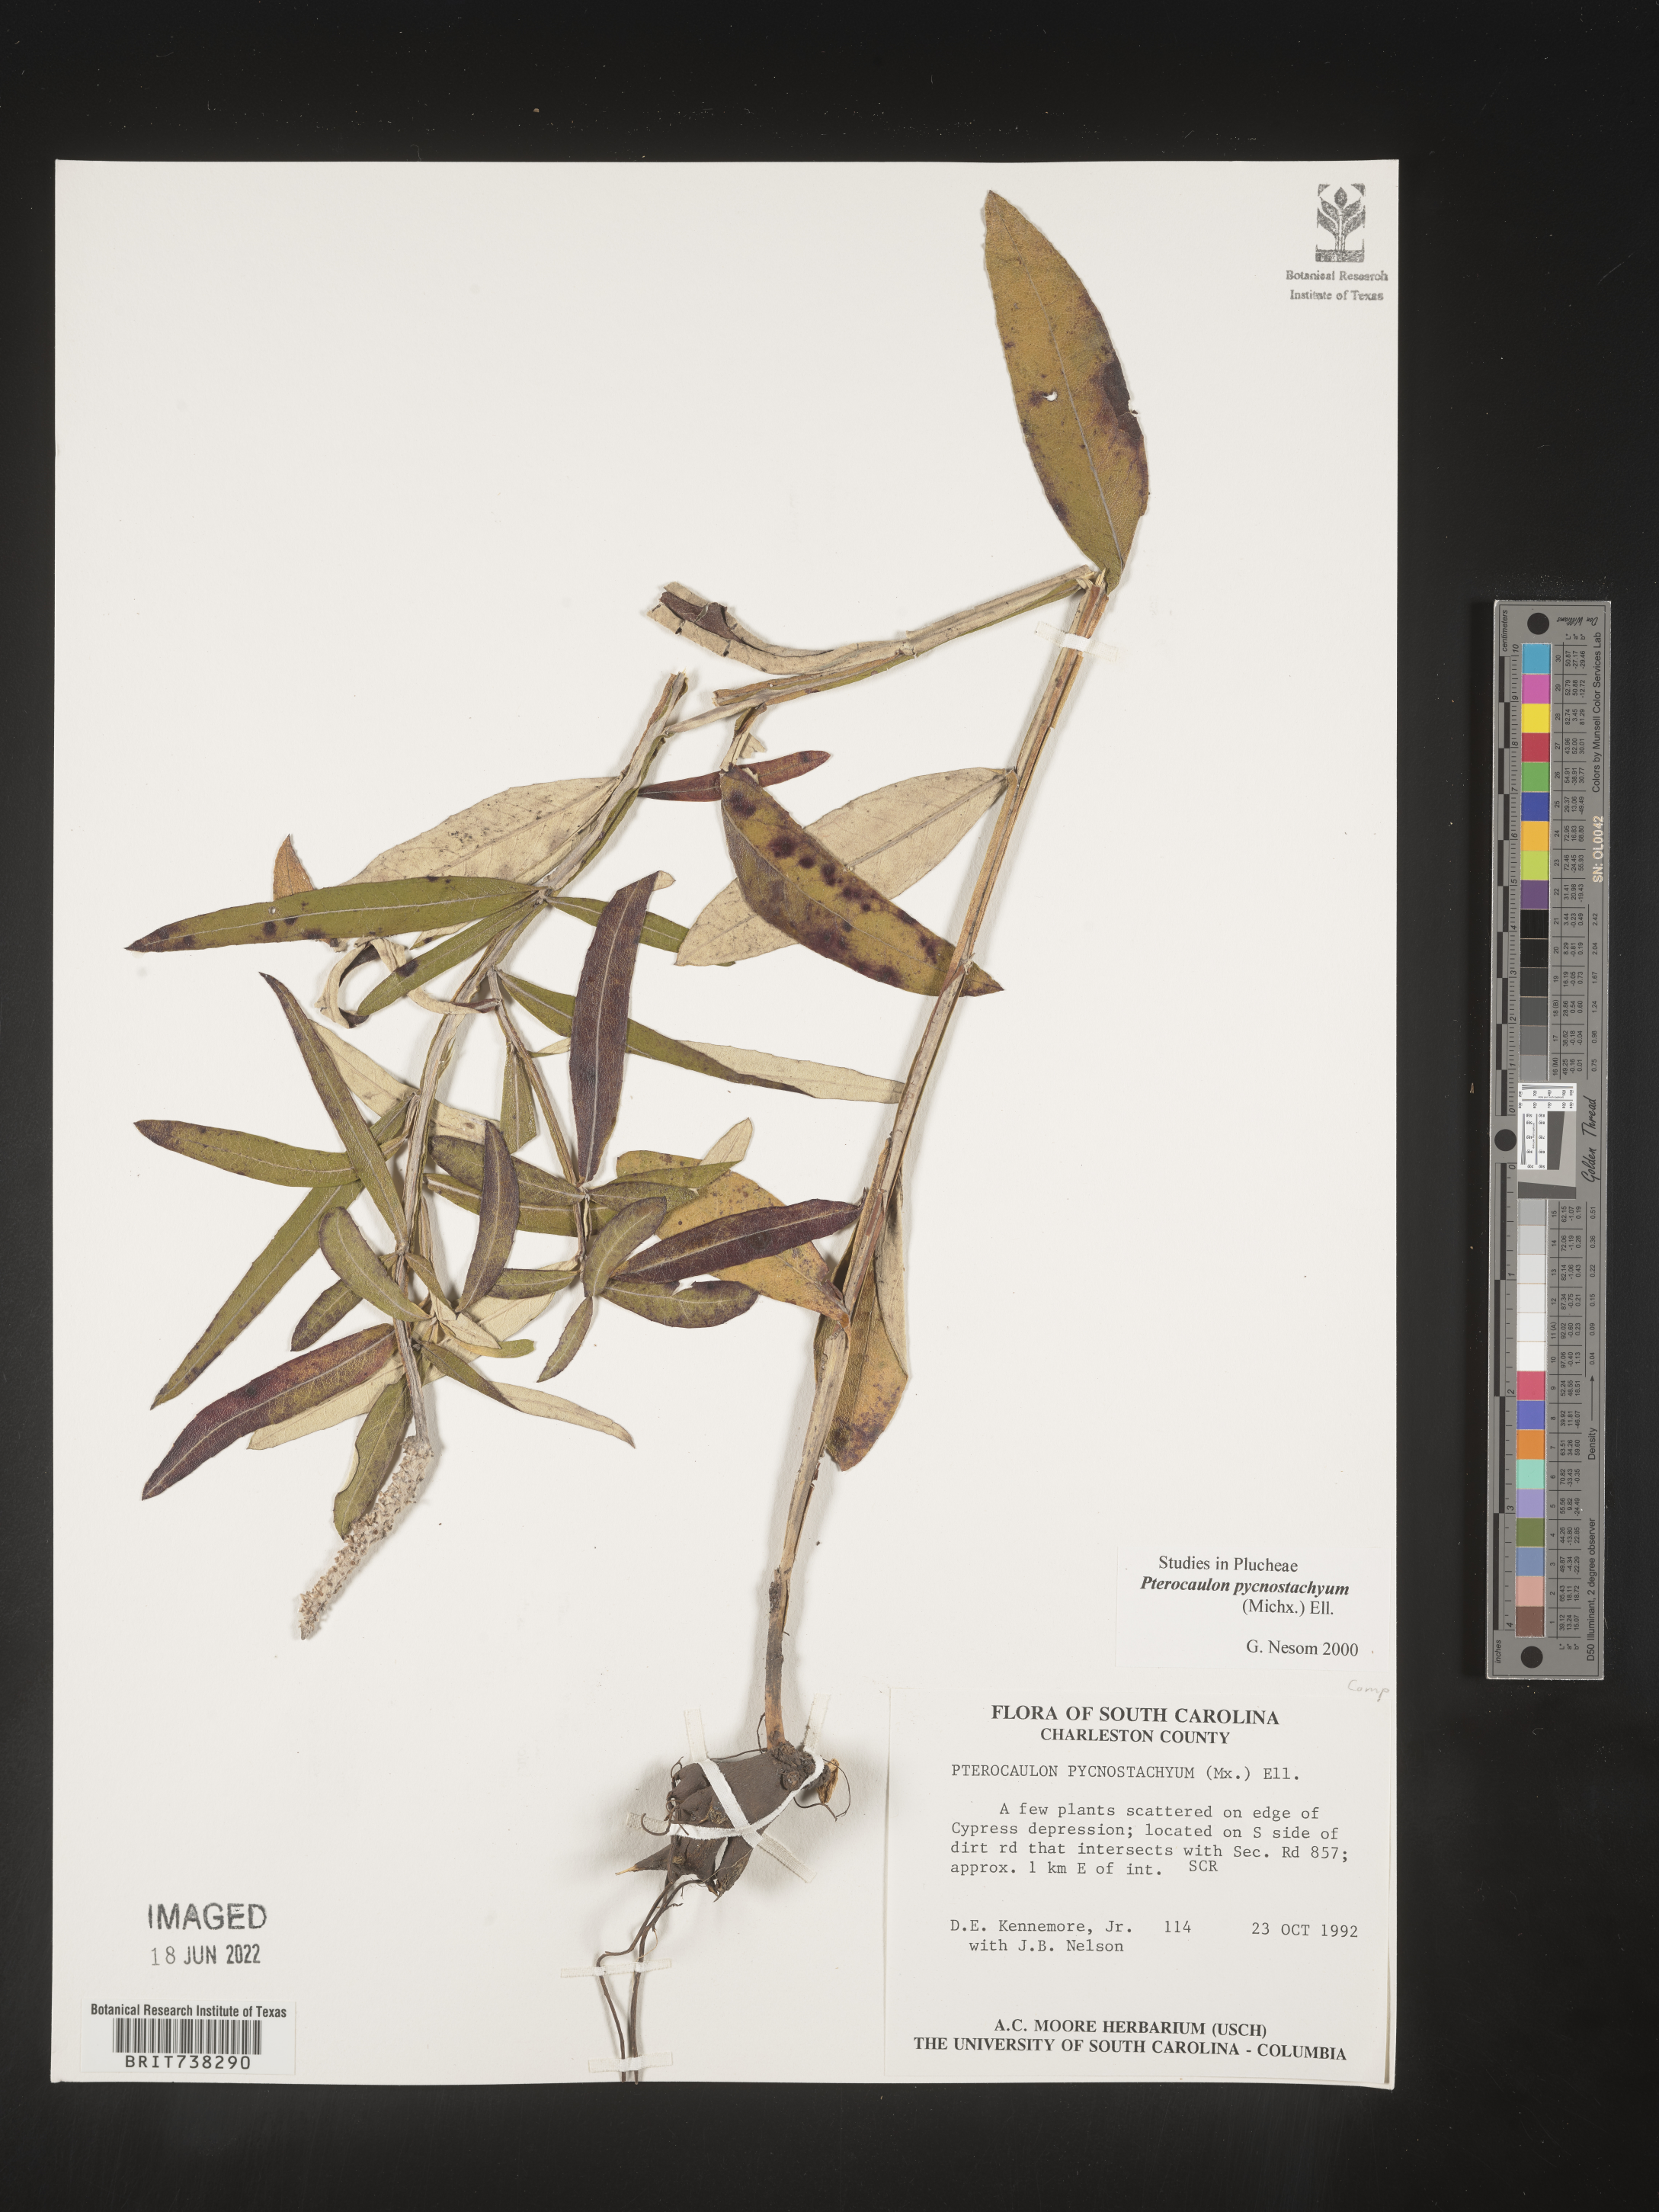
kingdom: Plantae
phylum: Tracheophyta
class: Magnoliopsida
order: Asterales
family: Asteraceae
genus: Pterocaulon
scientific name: Pterocaulon pycnostachyum
